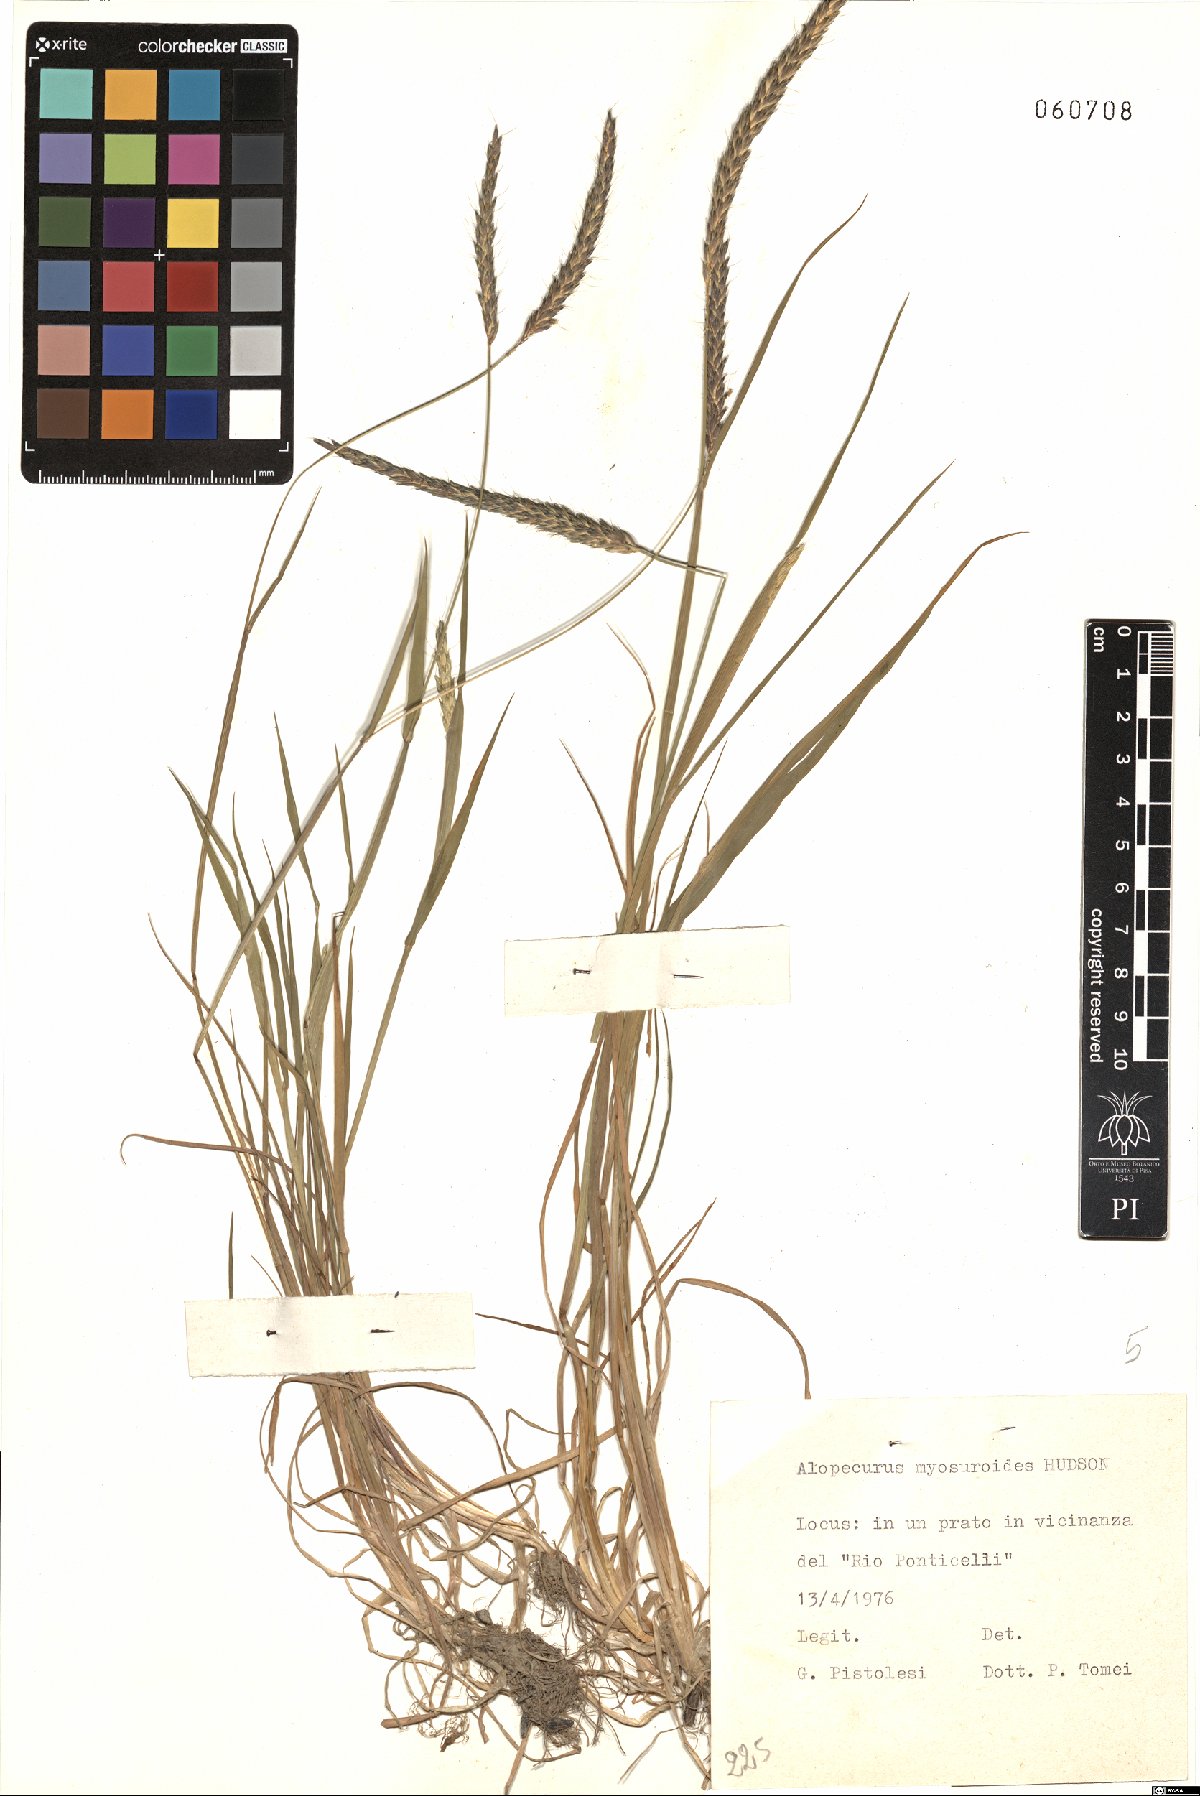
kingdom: Plantae
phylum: Tracheophyta
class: Liliopsida
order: Poales
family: Poaceae
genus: Alopecurus
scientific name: Alopecurus myosuroides
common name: Black-grass
